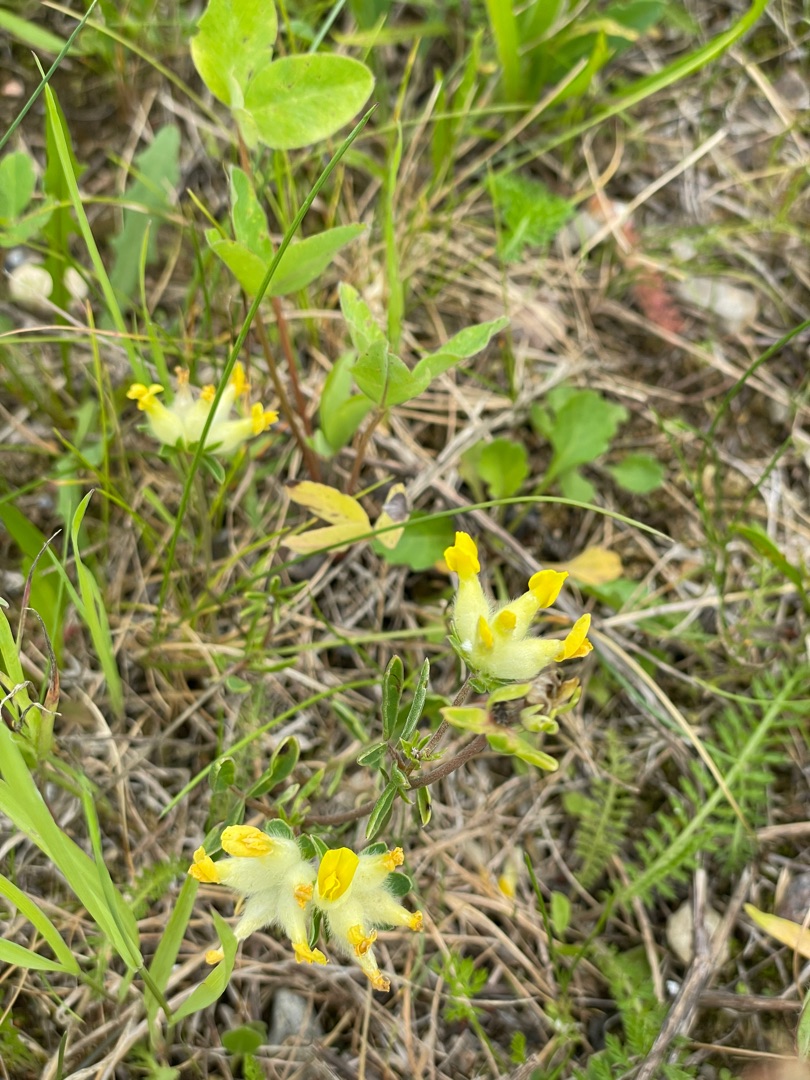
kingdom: Plantae
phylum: Tracheophyta
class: Magnoliopsida
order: Fabales
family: Fabaceae
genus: Anthyllis
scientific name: Anthyllis vulneraria
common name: Rundbælg
